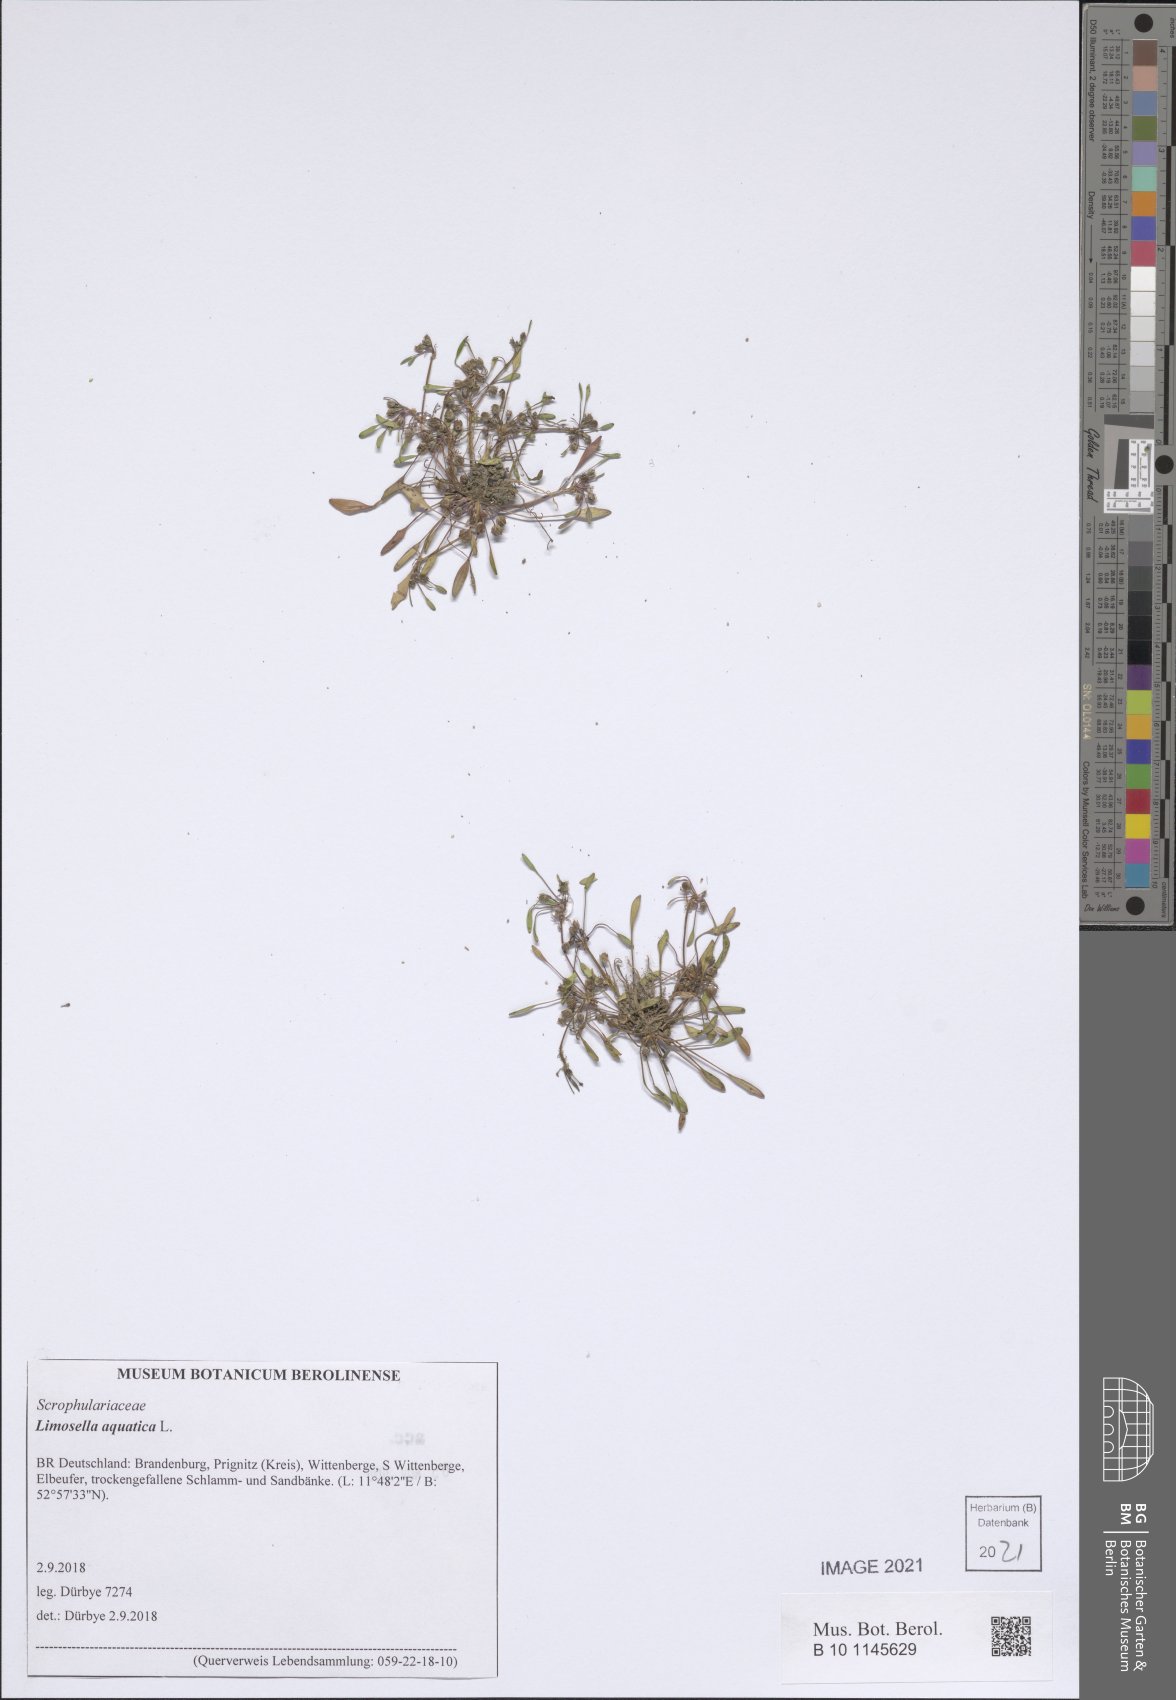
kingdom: Plantae
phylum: Tracheophyta
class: Magnoliopsida
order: Lamiales
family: Scrophulariaceae
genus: Limosella
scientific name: Limosella aquatica
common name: Mudwort
